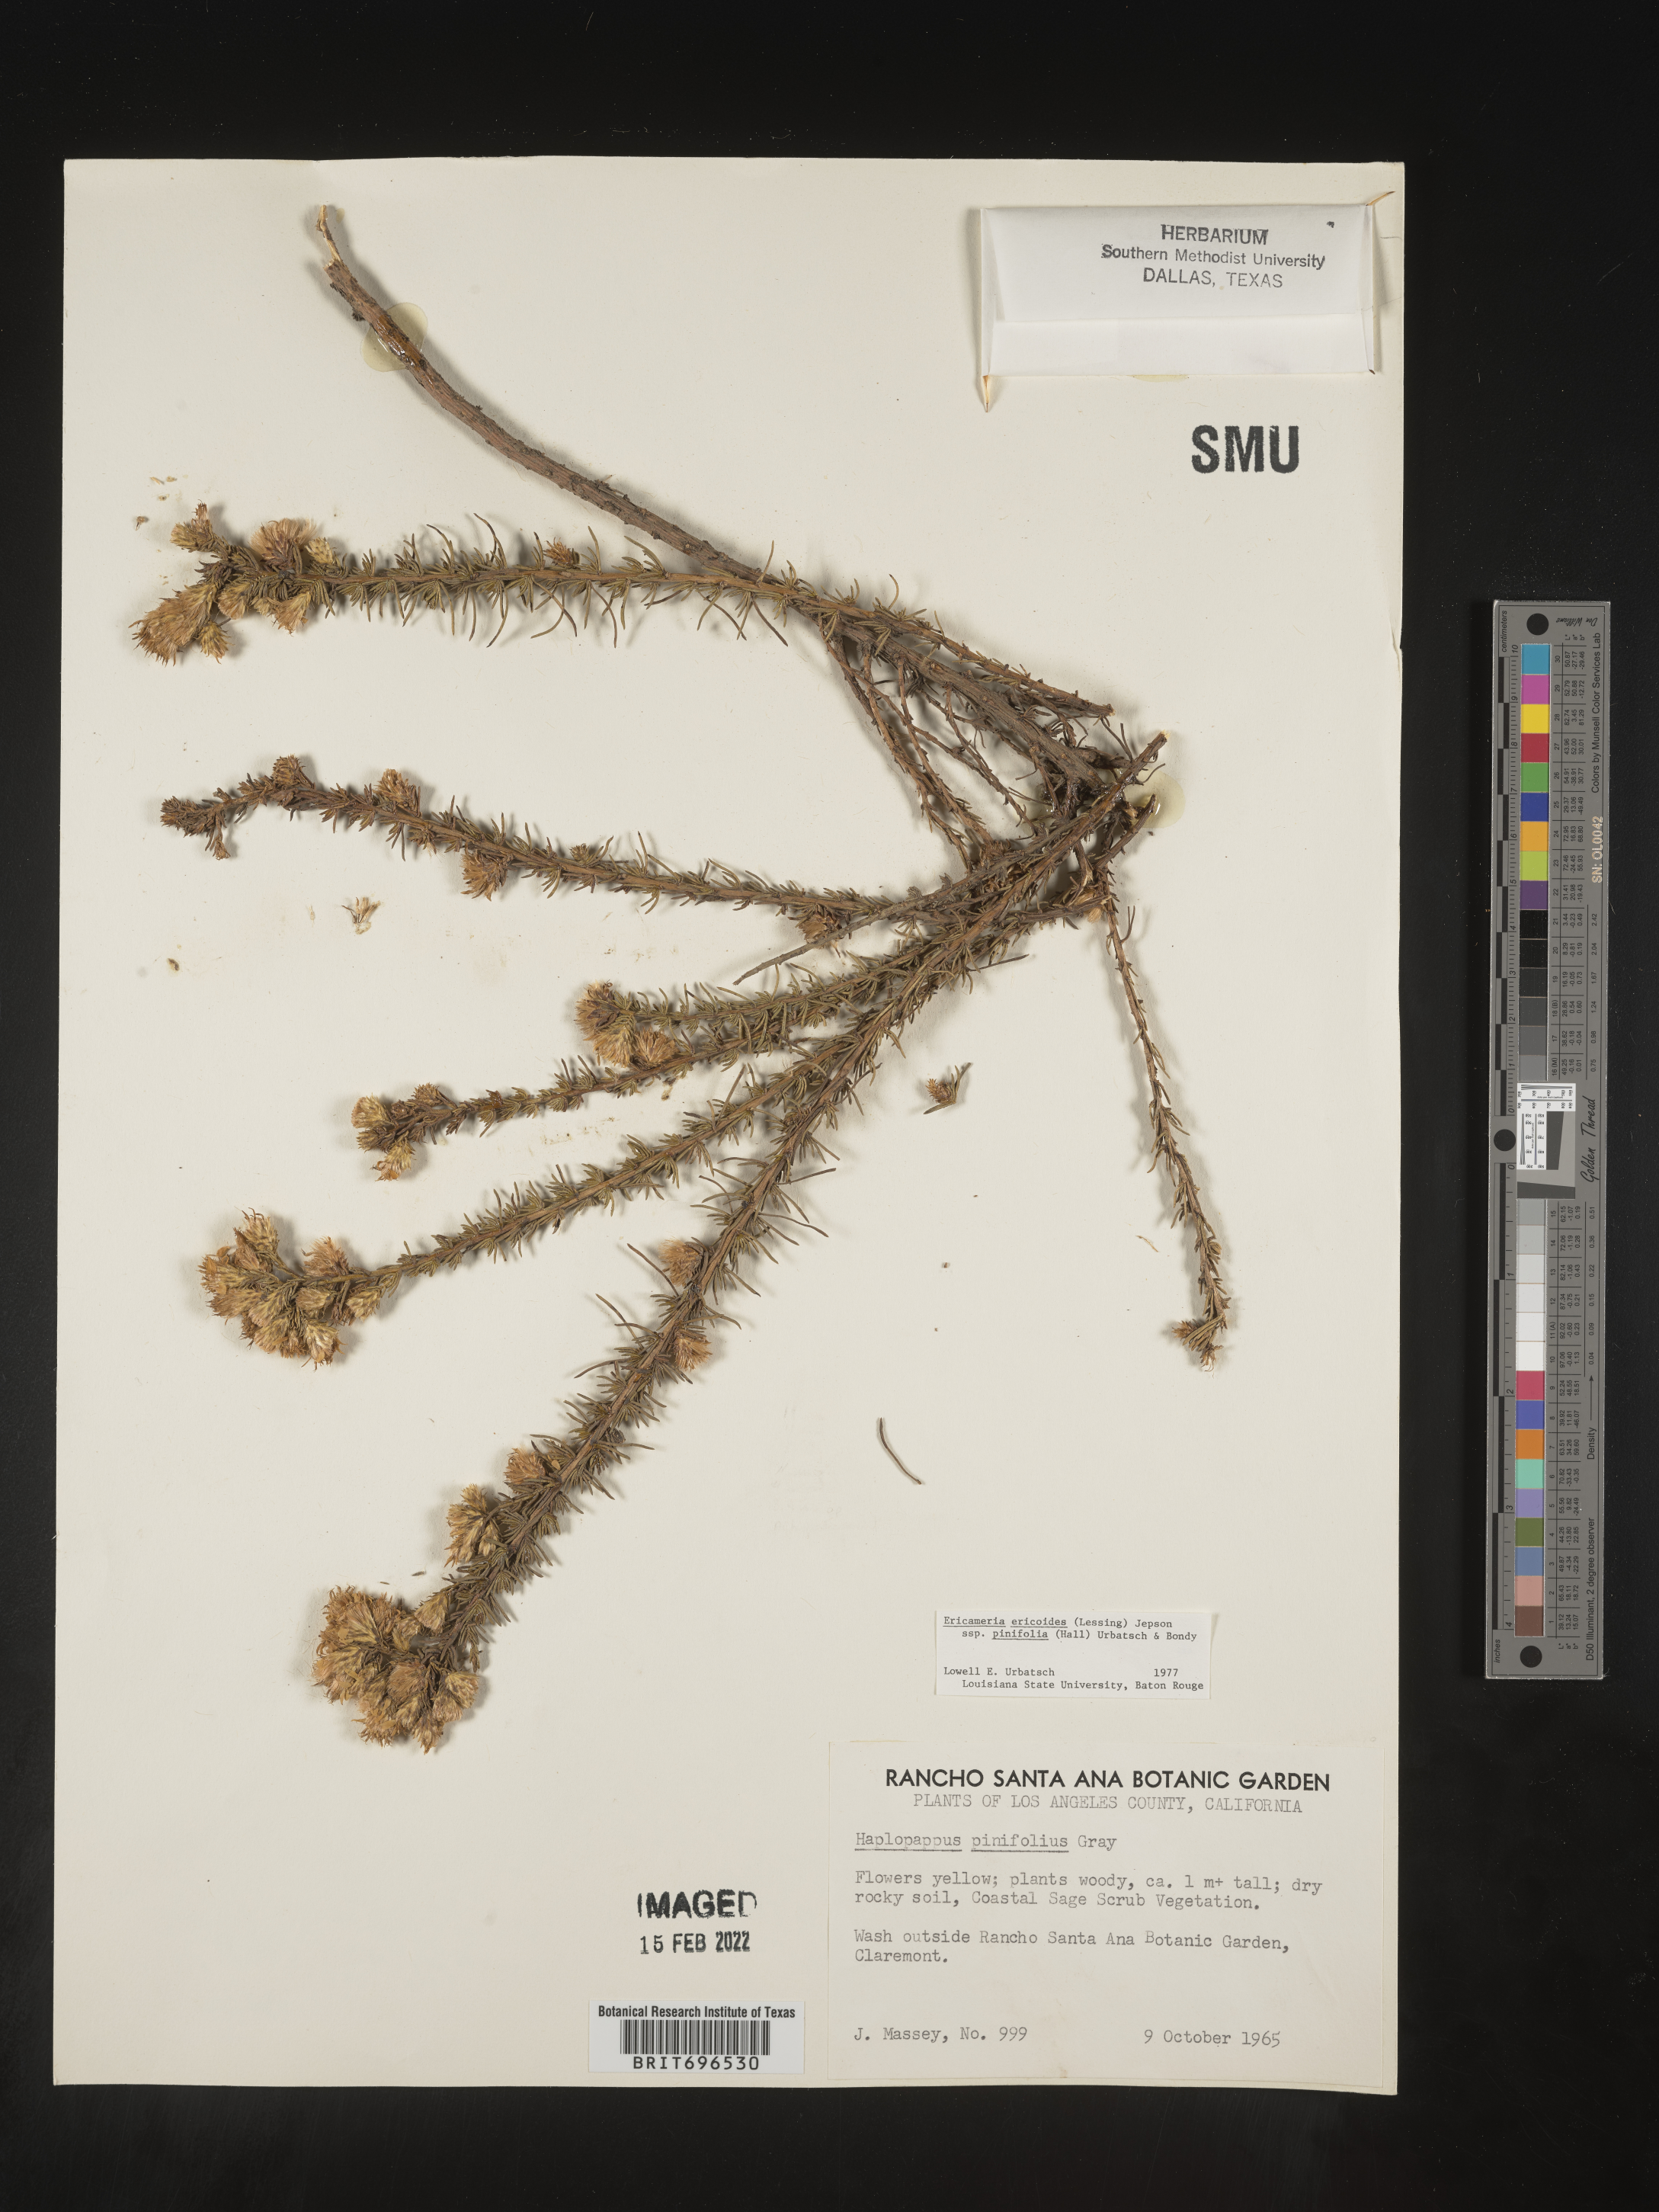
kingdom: Plantae
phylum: Tracheophyta
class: Magnoliopsida
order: Asterales
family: Asteraceae
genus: Ericameria
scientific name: Ericameria pinifolia
